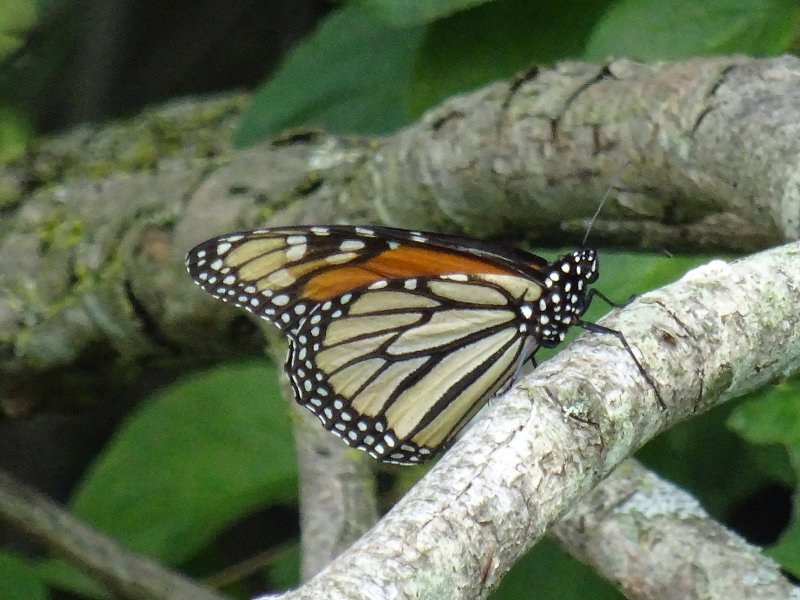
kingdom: Animalia
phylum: Arthropoda
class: Insecta
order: Lepidoptera
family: Nymphalidae
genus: Danaus
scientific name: Danaus plexippus
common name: Monarch
